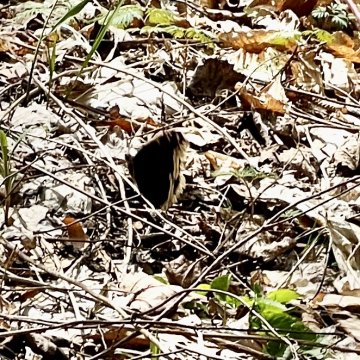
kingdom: Animalia
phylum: Arthropoda
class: Insecta
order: Lepidoptera
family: Nymphalidae
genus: Nymphalis
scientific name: Nymphalis antiopa
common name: Mourning Cloak
